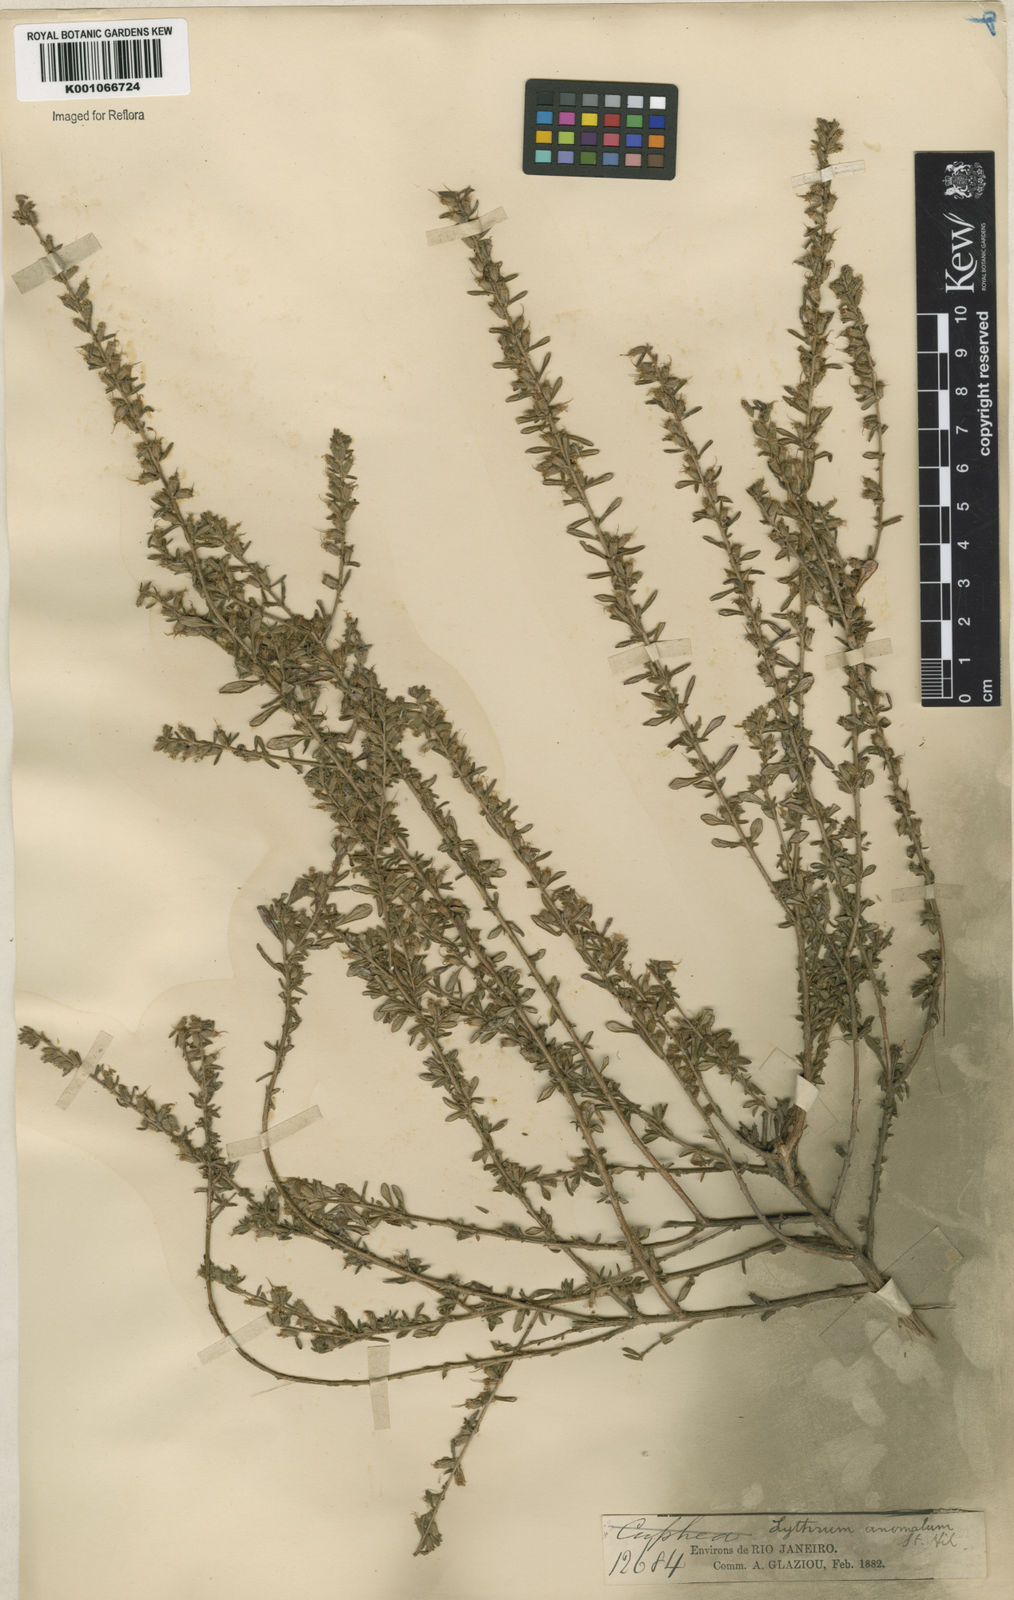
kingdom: Plantae
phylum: Tracheophyta
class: Magnoliopsida
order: Myrtales
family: Lythraceae
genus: Pleurophora
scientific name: Pleurophora anomala
